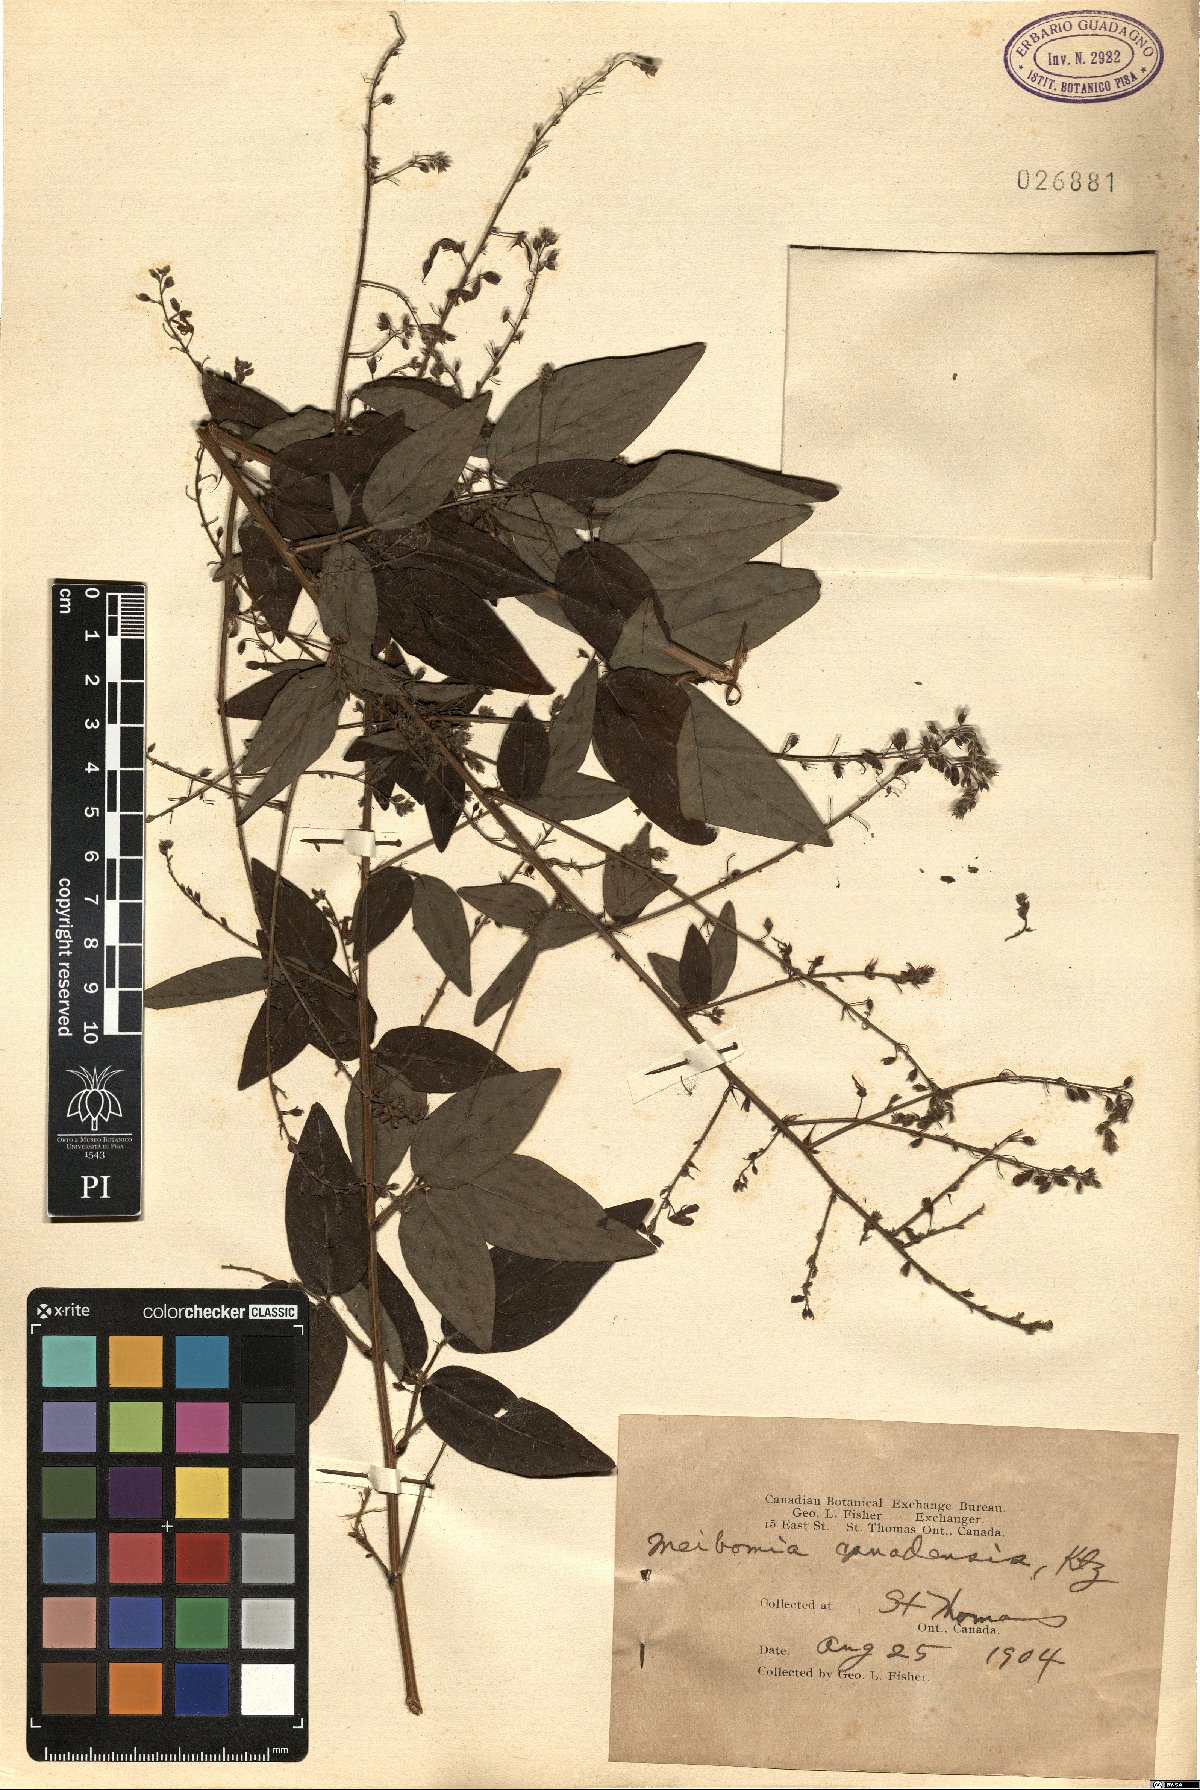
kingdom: Plantae
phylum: Tracheophyta
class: Magnoliopsida
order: Fabales
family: Fabaceae
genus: Desmodium
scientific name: Desmodium canadense
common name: Canada tick-trefoil
